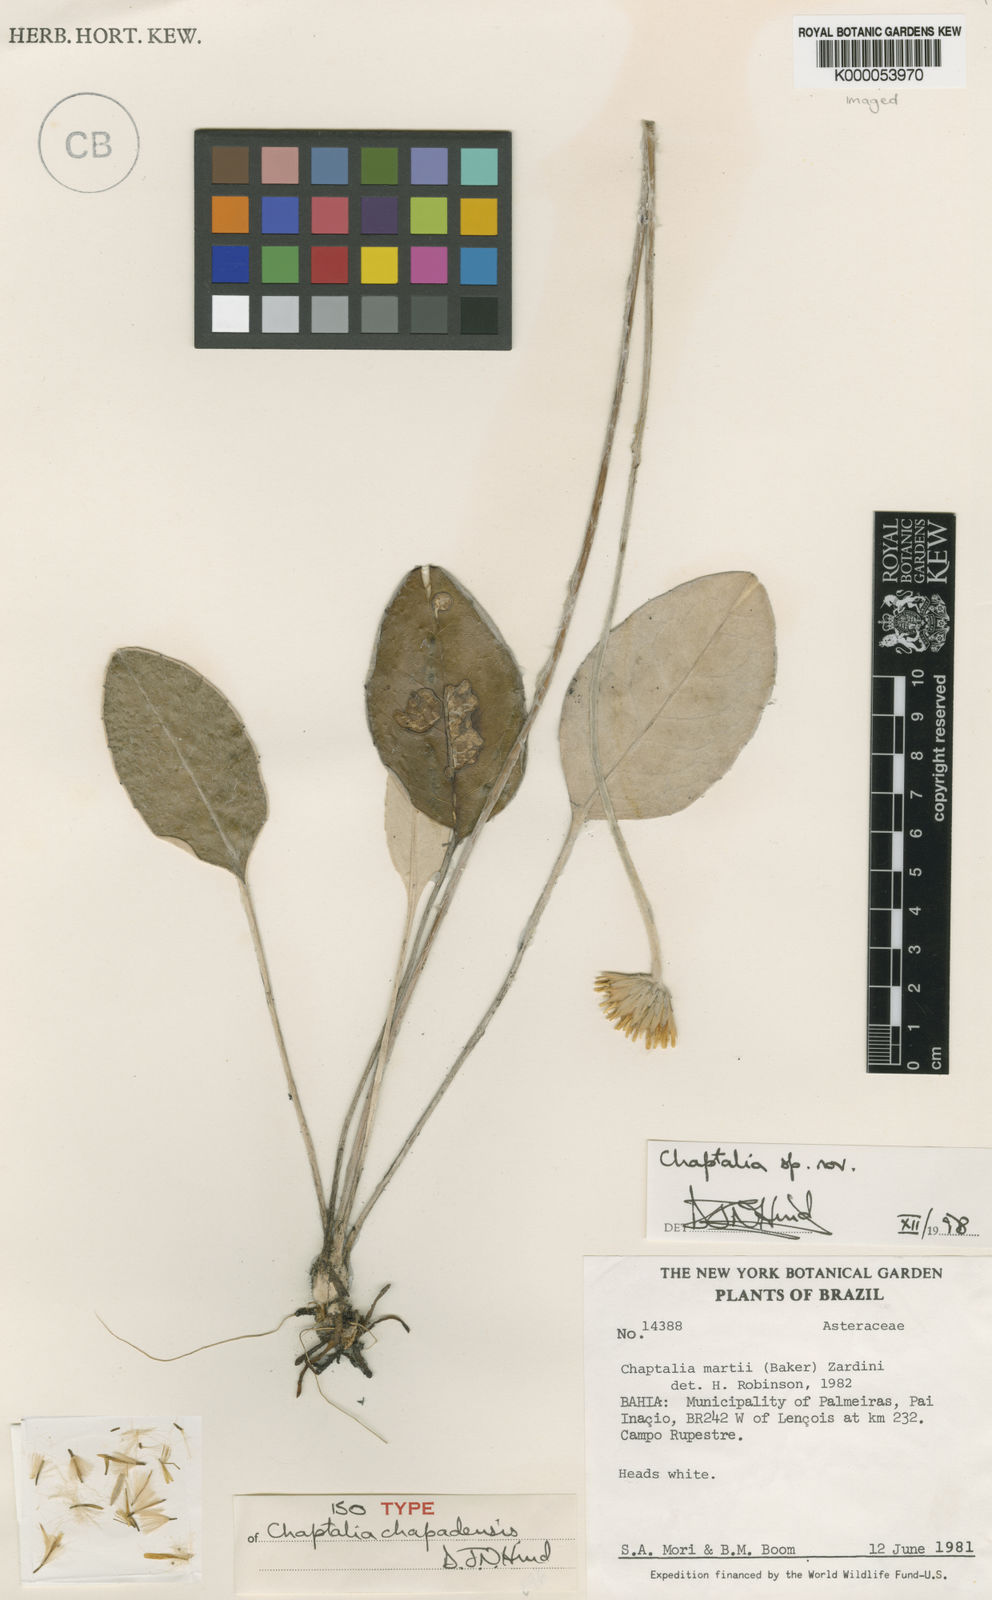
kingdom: Plantae
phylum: Tracheophyta
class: Magnoliopsida
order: Asterales
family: Asteraceae
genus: Chaptalia
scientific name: Chaptalia chapadensis
